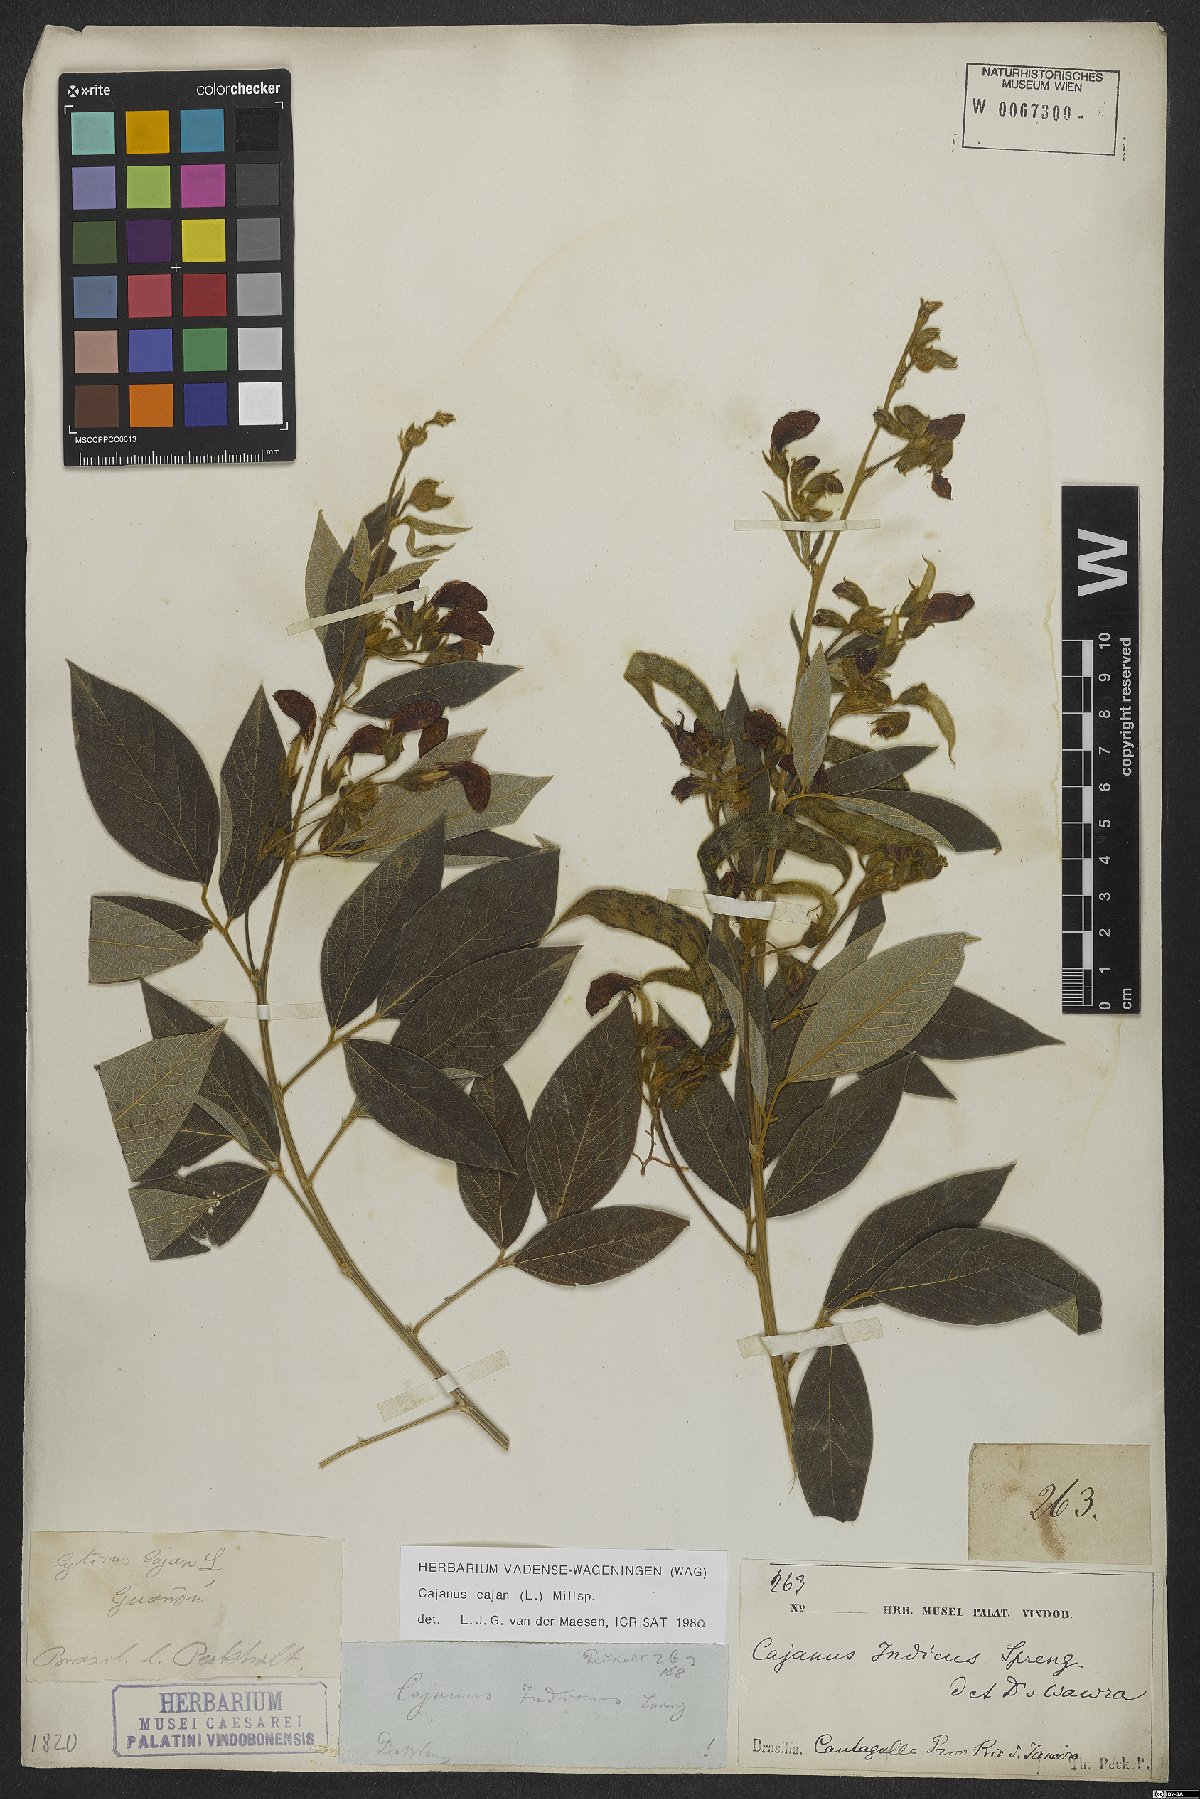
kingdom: Plantae
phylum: Tracheophyta
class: Magnoliopsida
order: Fabales
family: Fabaceae
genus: Cajanus
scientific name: Cajanus cajan
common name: Pigeonpea
